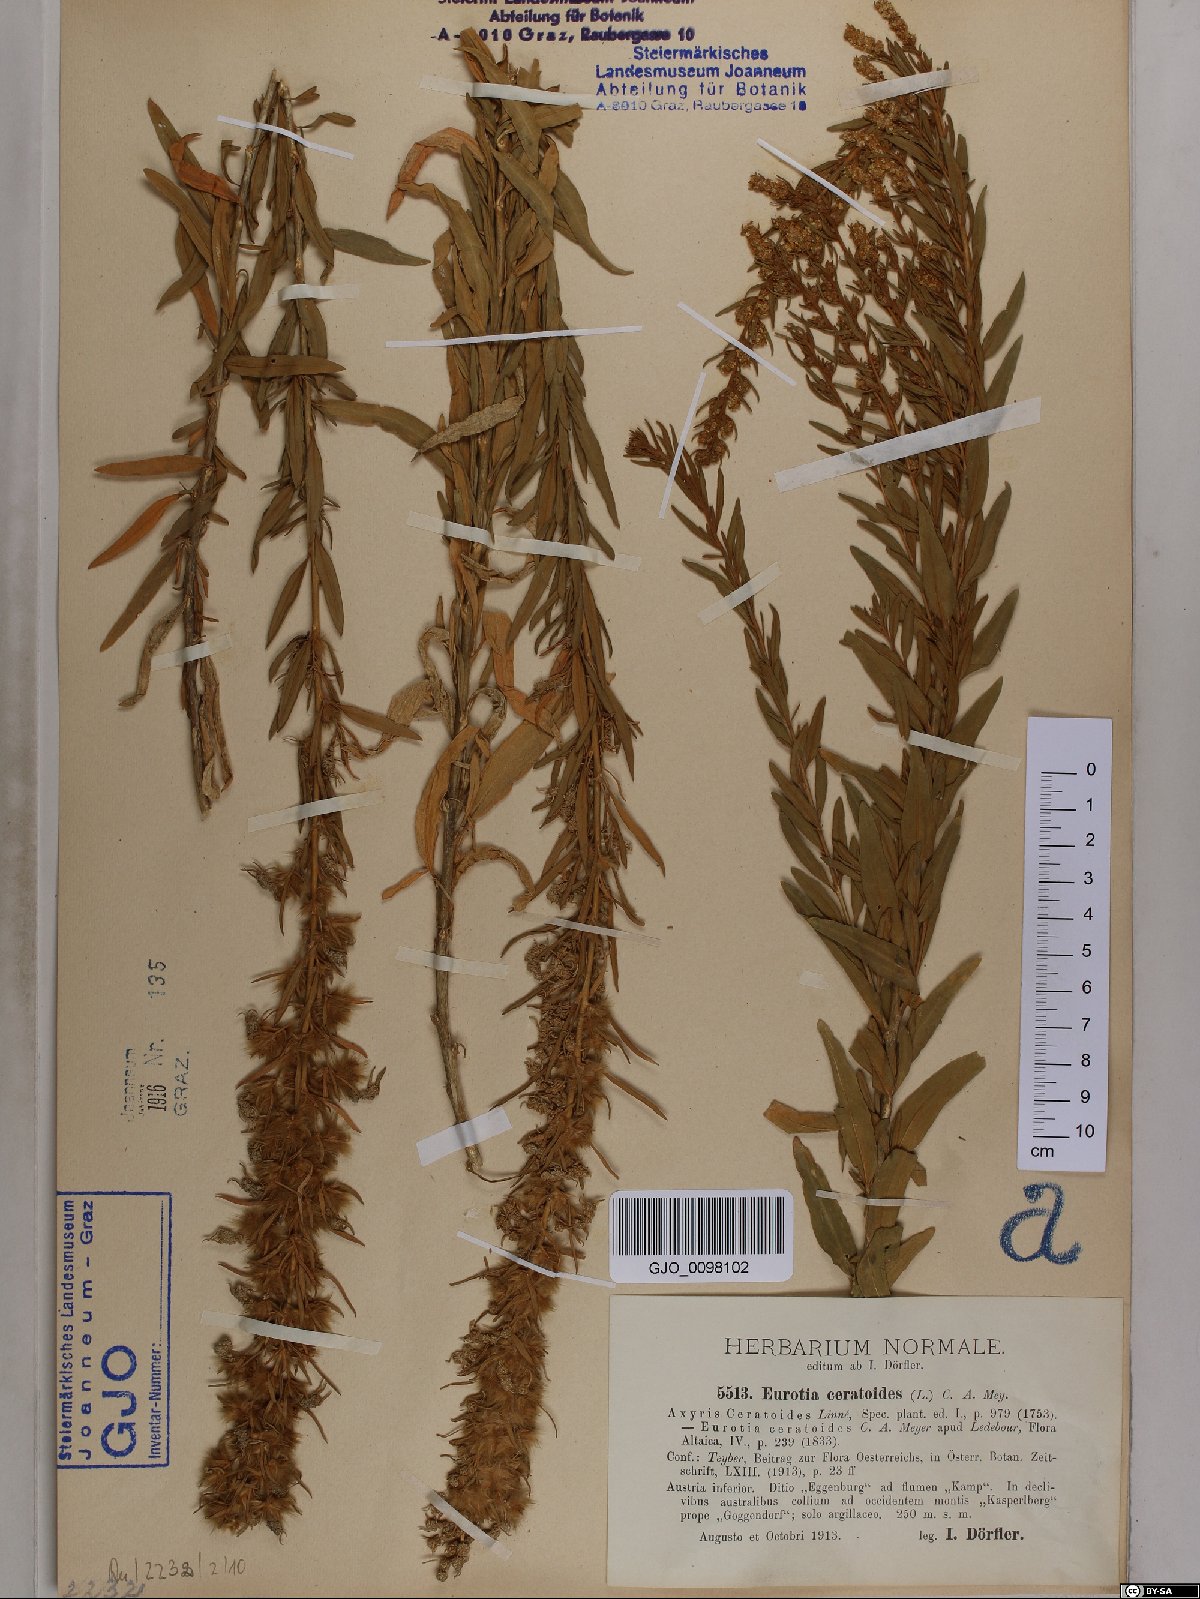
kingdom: Plantae
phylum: Tracheophyta
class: Magnoliopsida
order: Caryophyllales
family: Amaranthaceae
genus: Krascheninnikovia
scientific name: Krascheninnikovia ceratoides
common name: Pamirian winterfat
